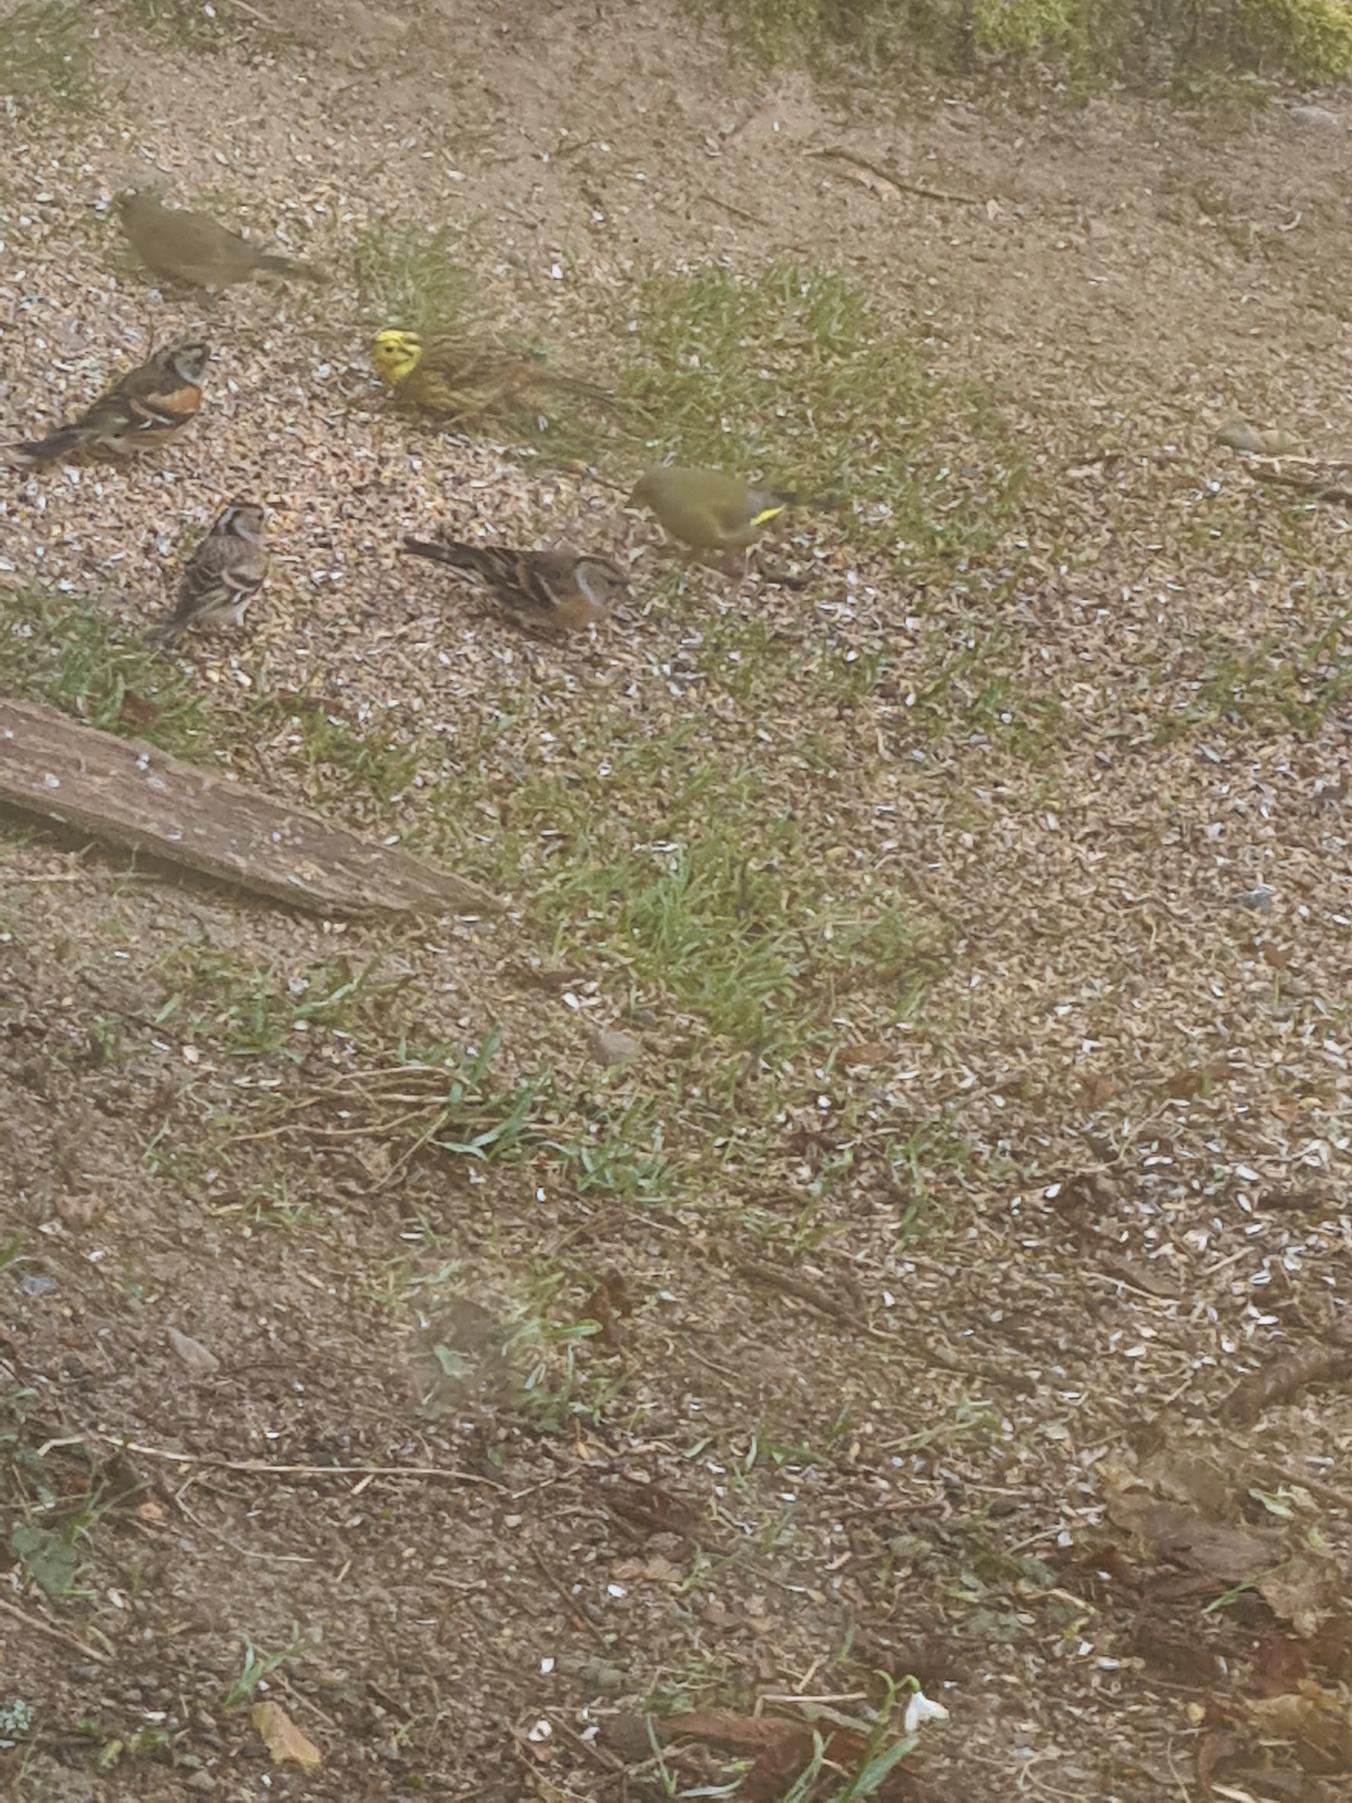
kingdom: Plantae
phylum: Tracheophyta
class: Liliopsida
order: Poales
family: Poaceae
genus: Chloris
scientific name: Chloris chloris
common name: Grønirisk
